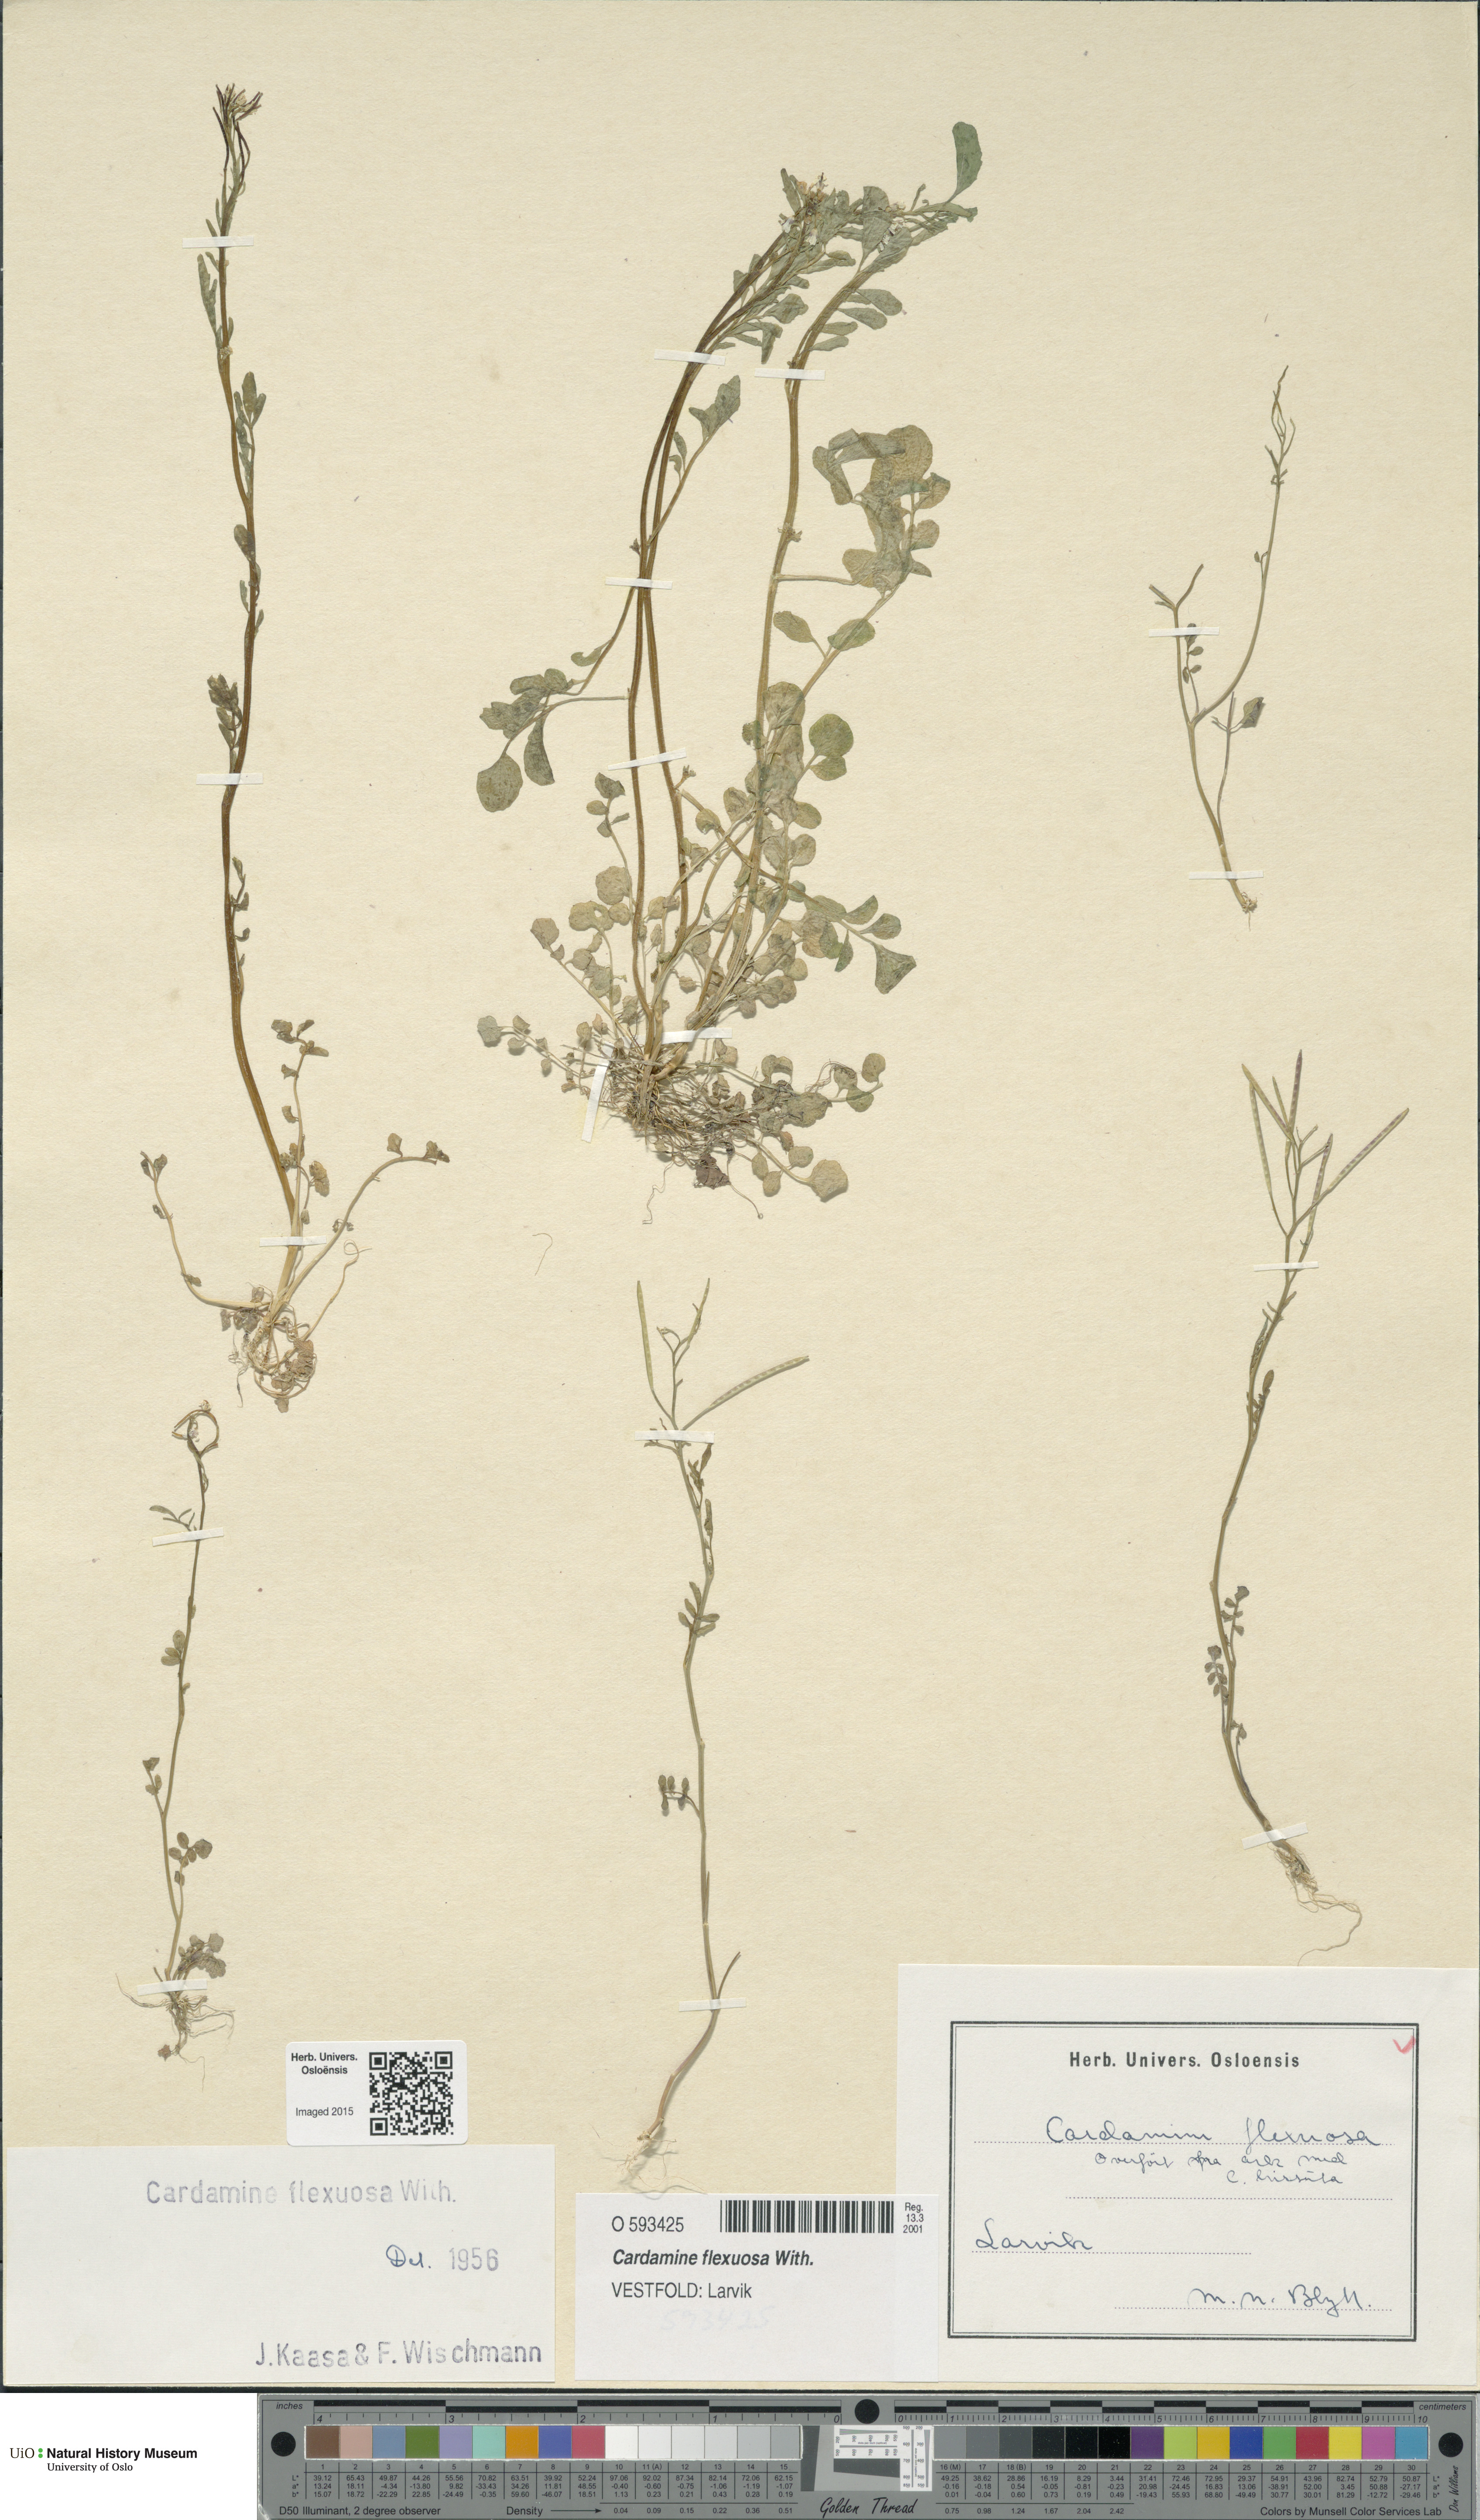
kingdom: Plantae
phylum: Tracheophyta
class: Magnoliopsida
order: Brassicales
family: Brassicaceae
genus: Cardamine
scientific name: Cardamine flexuosa
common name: Woodland bittercress
